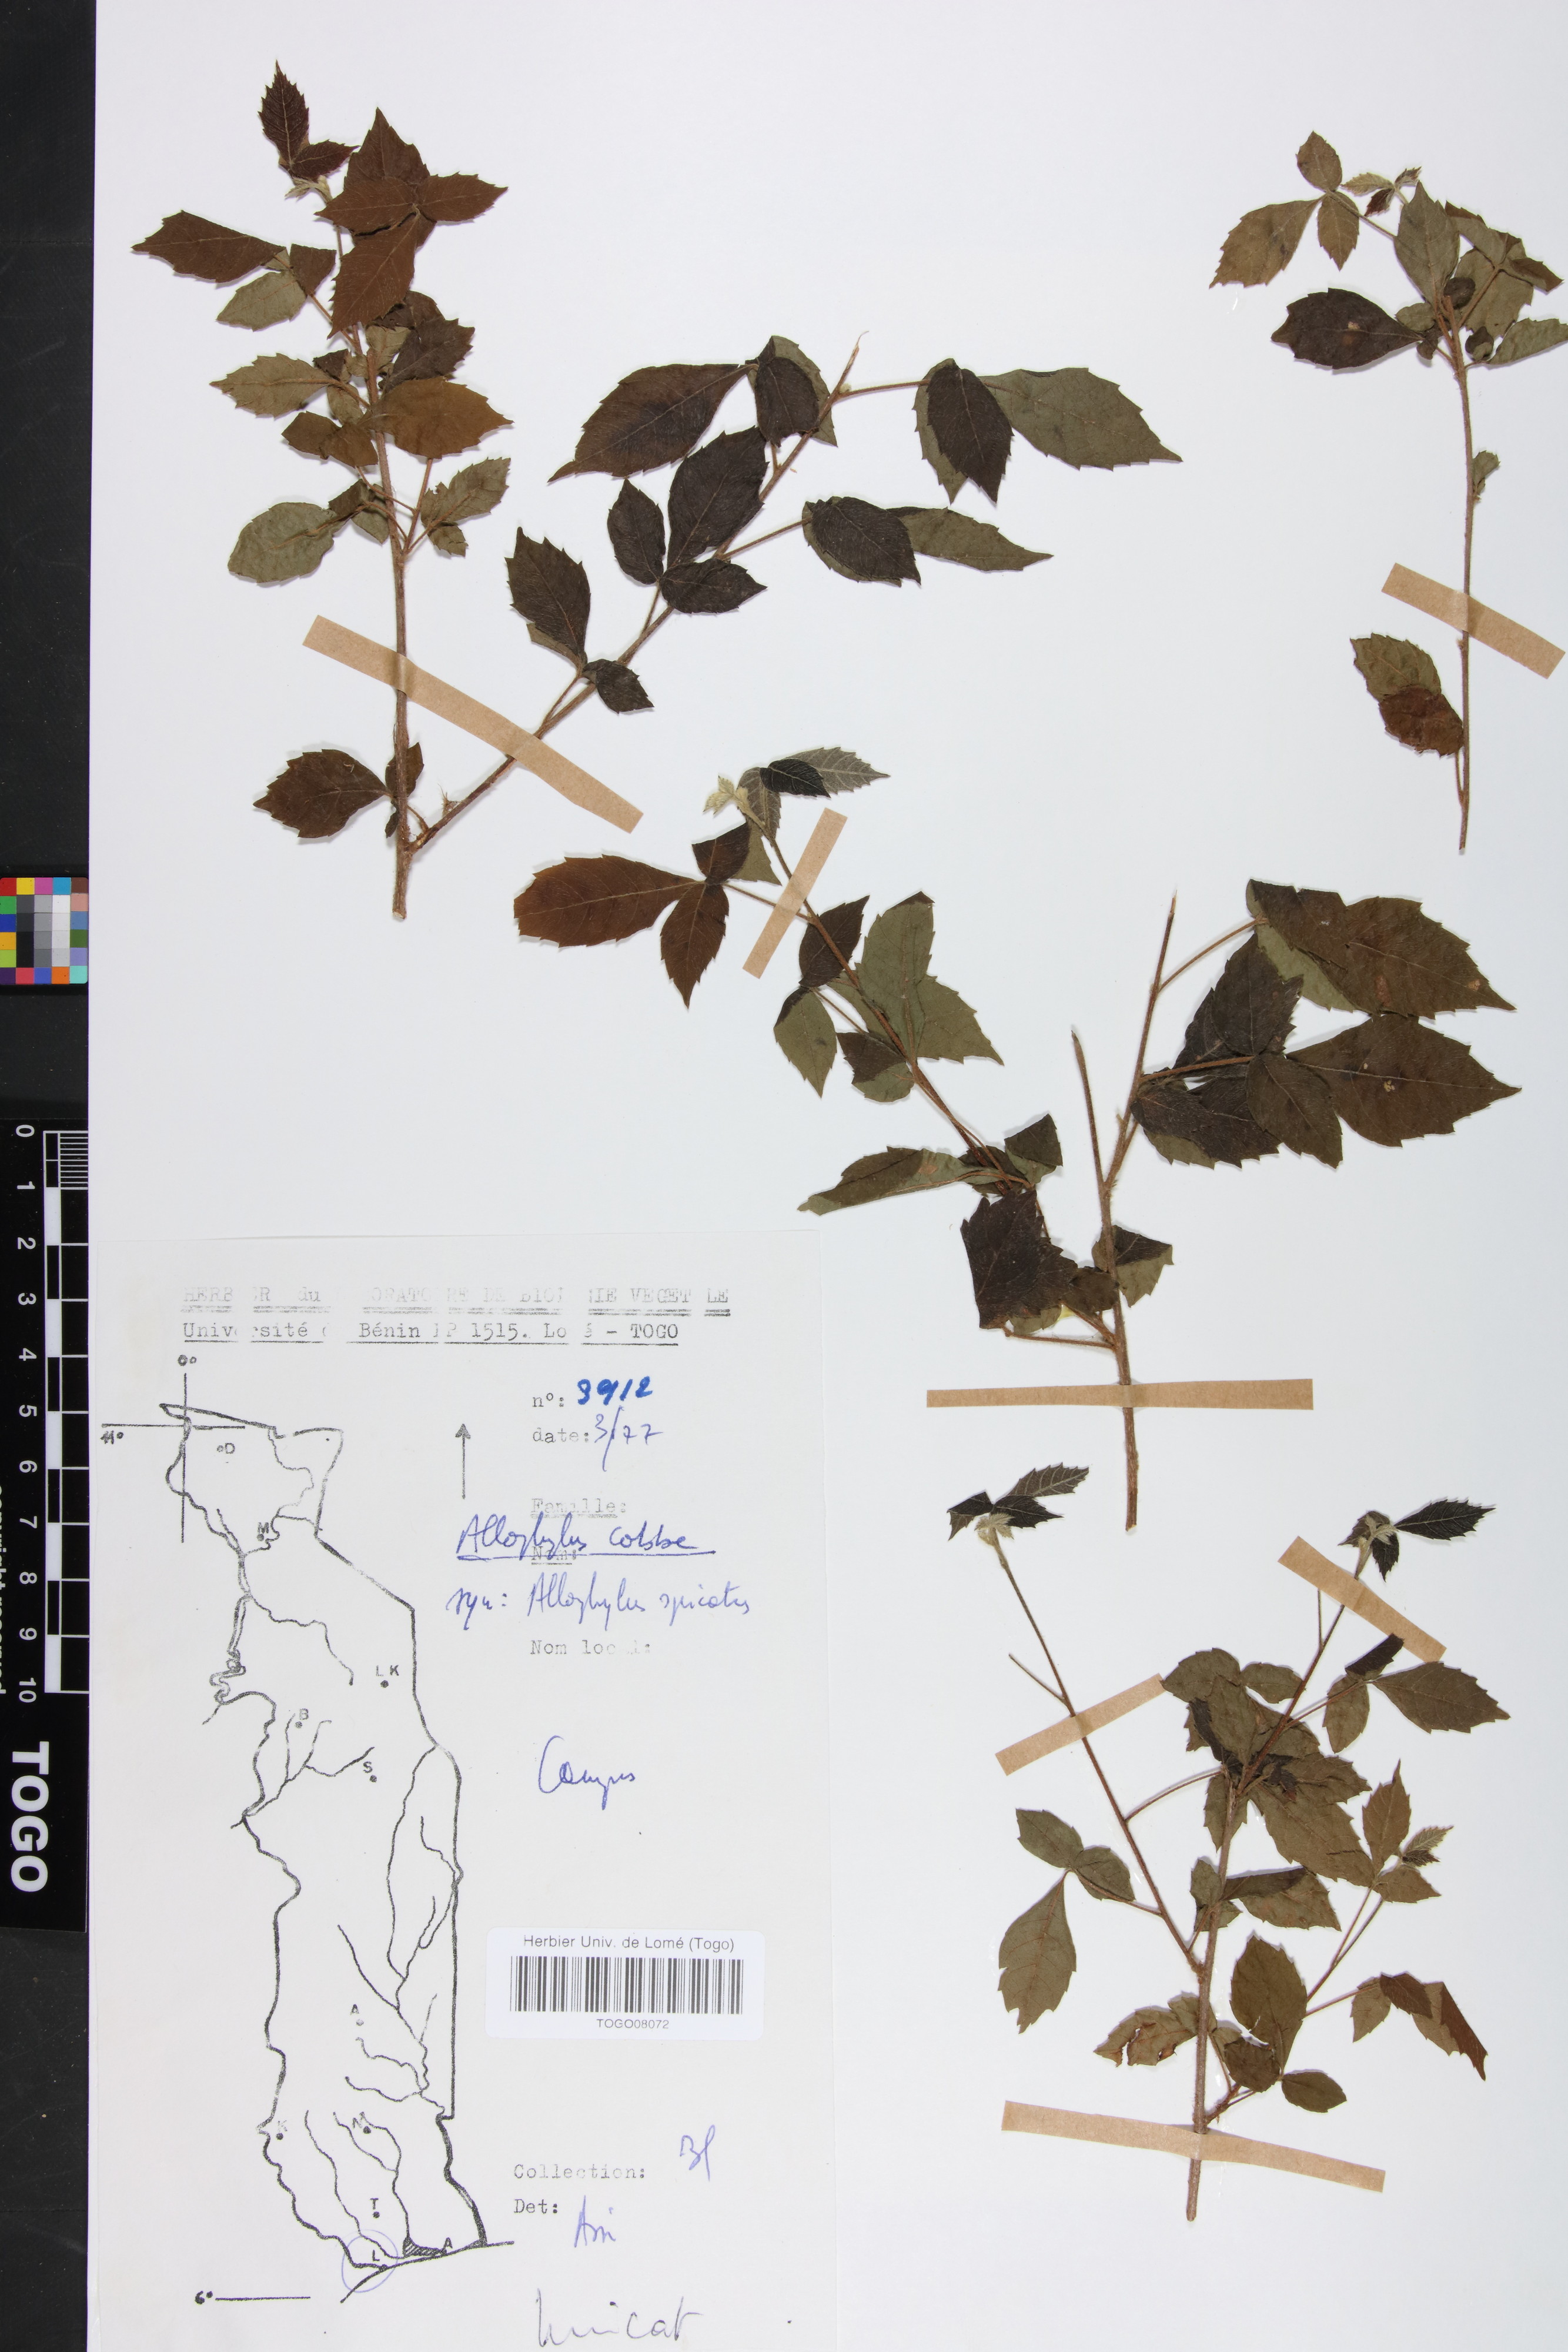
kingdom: Plantae
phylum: Tracheophyta
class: Magnoliopsida
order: Sapindales
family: Sapindaceae
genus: Allophylus
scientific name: Allophylus cobbe
